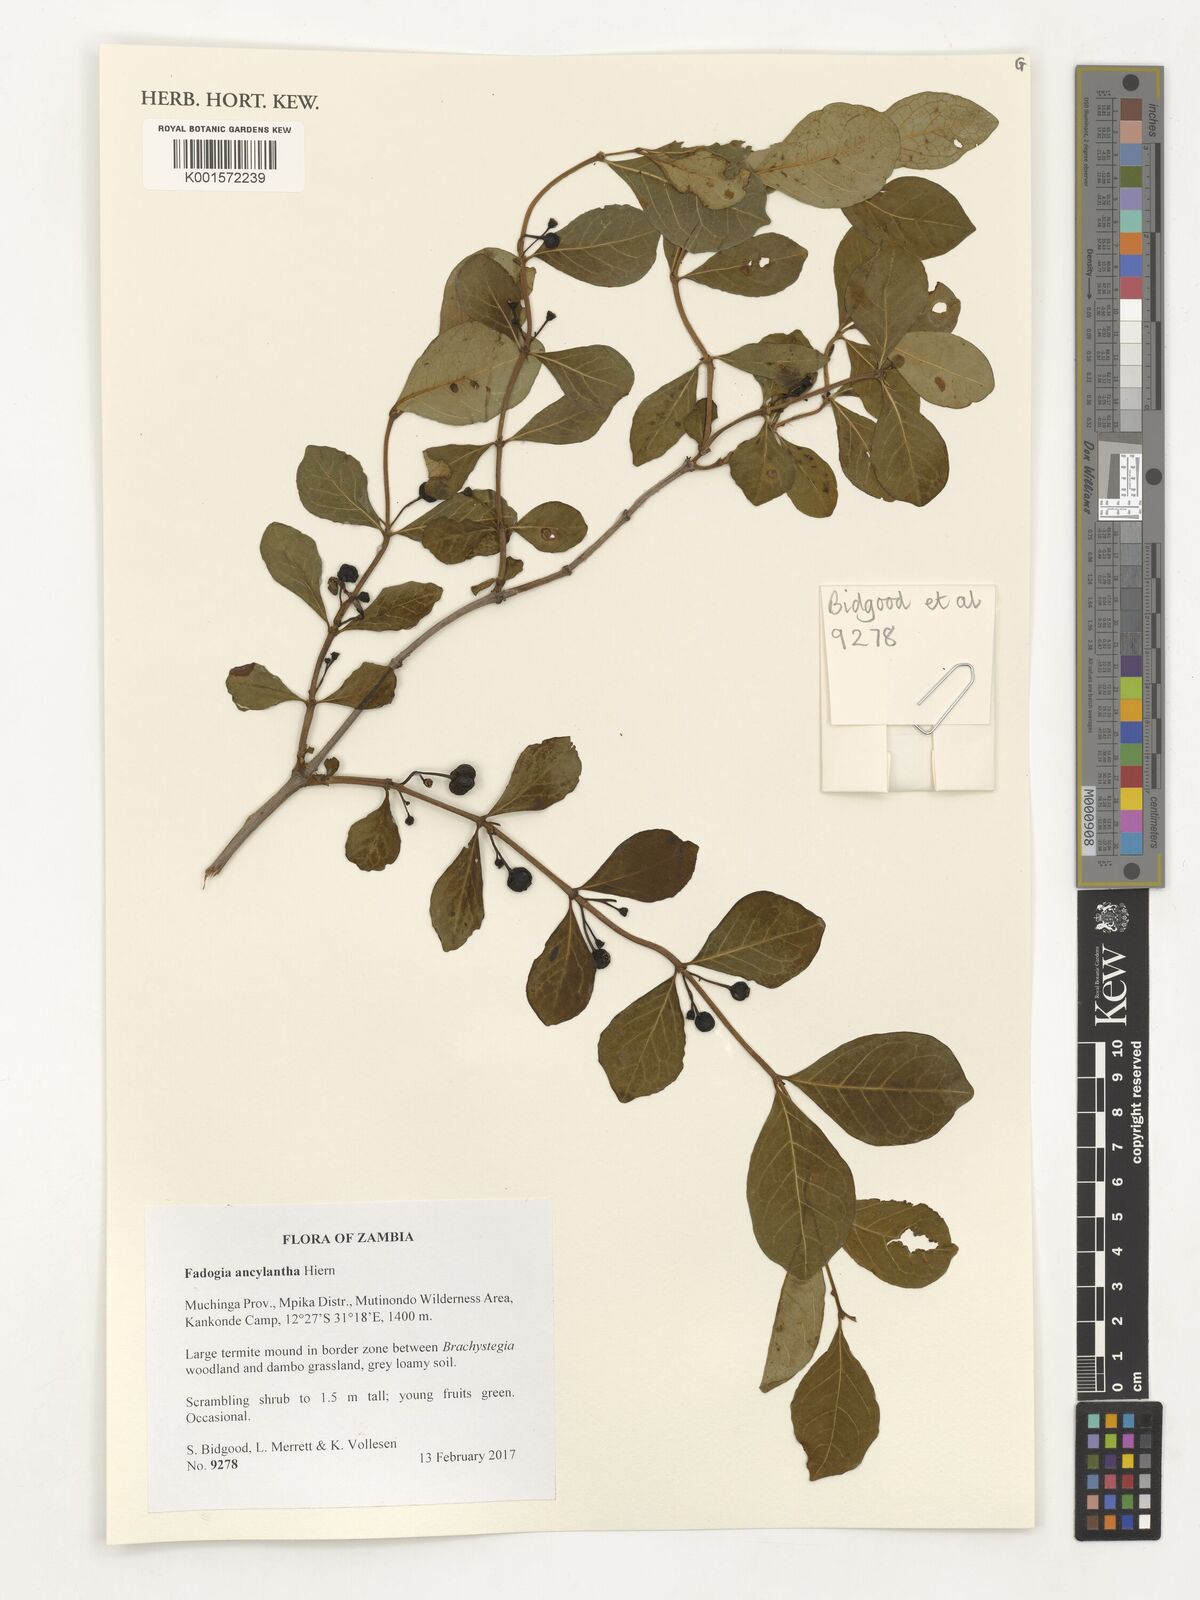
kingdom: Plantae
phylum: Tracheophyta
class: Magnoliopsida
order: Gentianales
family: Rubiaceae
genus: Fadogia
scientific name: Fadogia ancylantha
